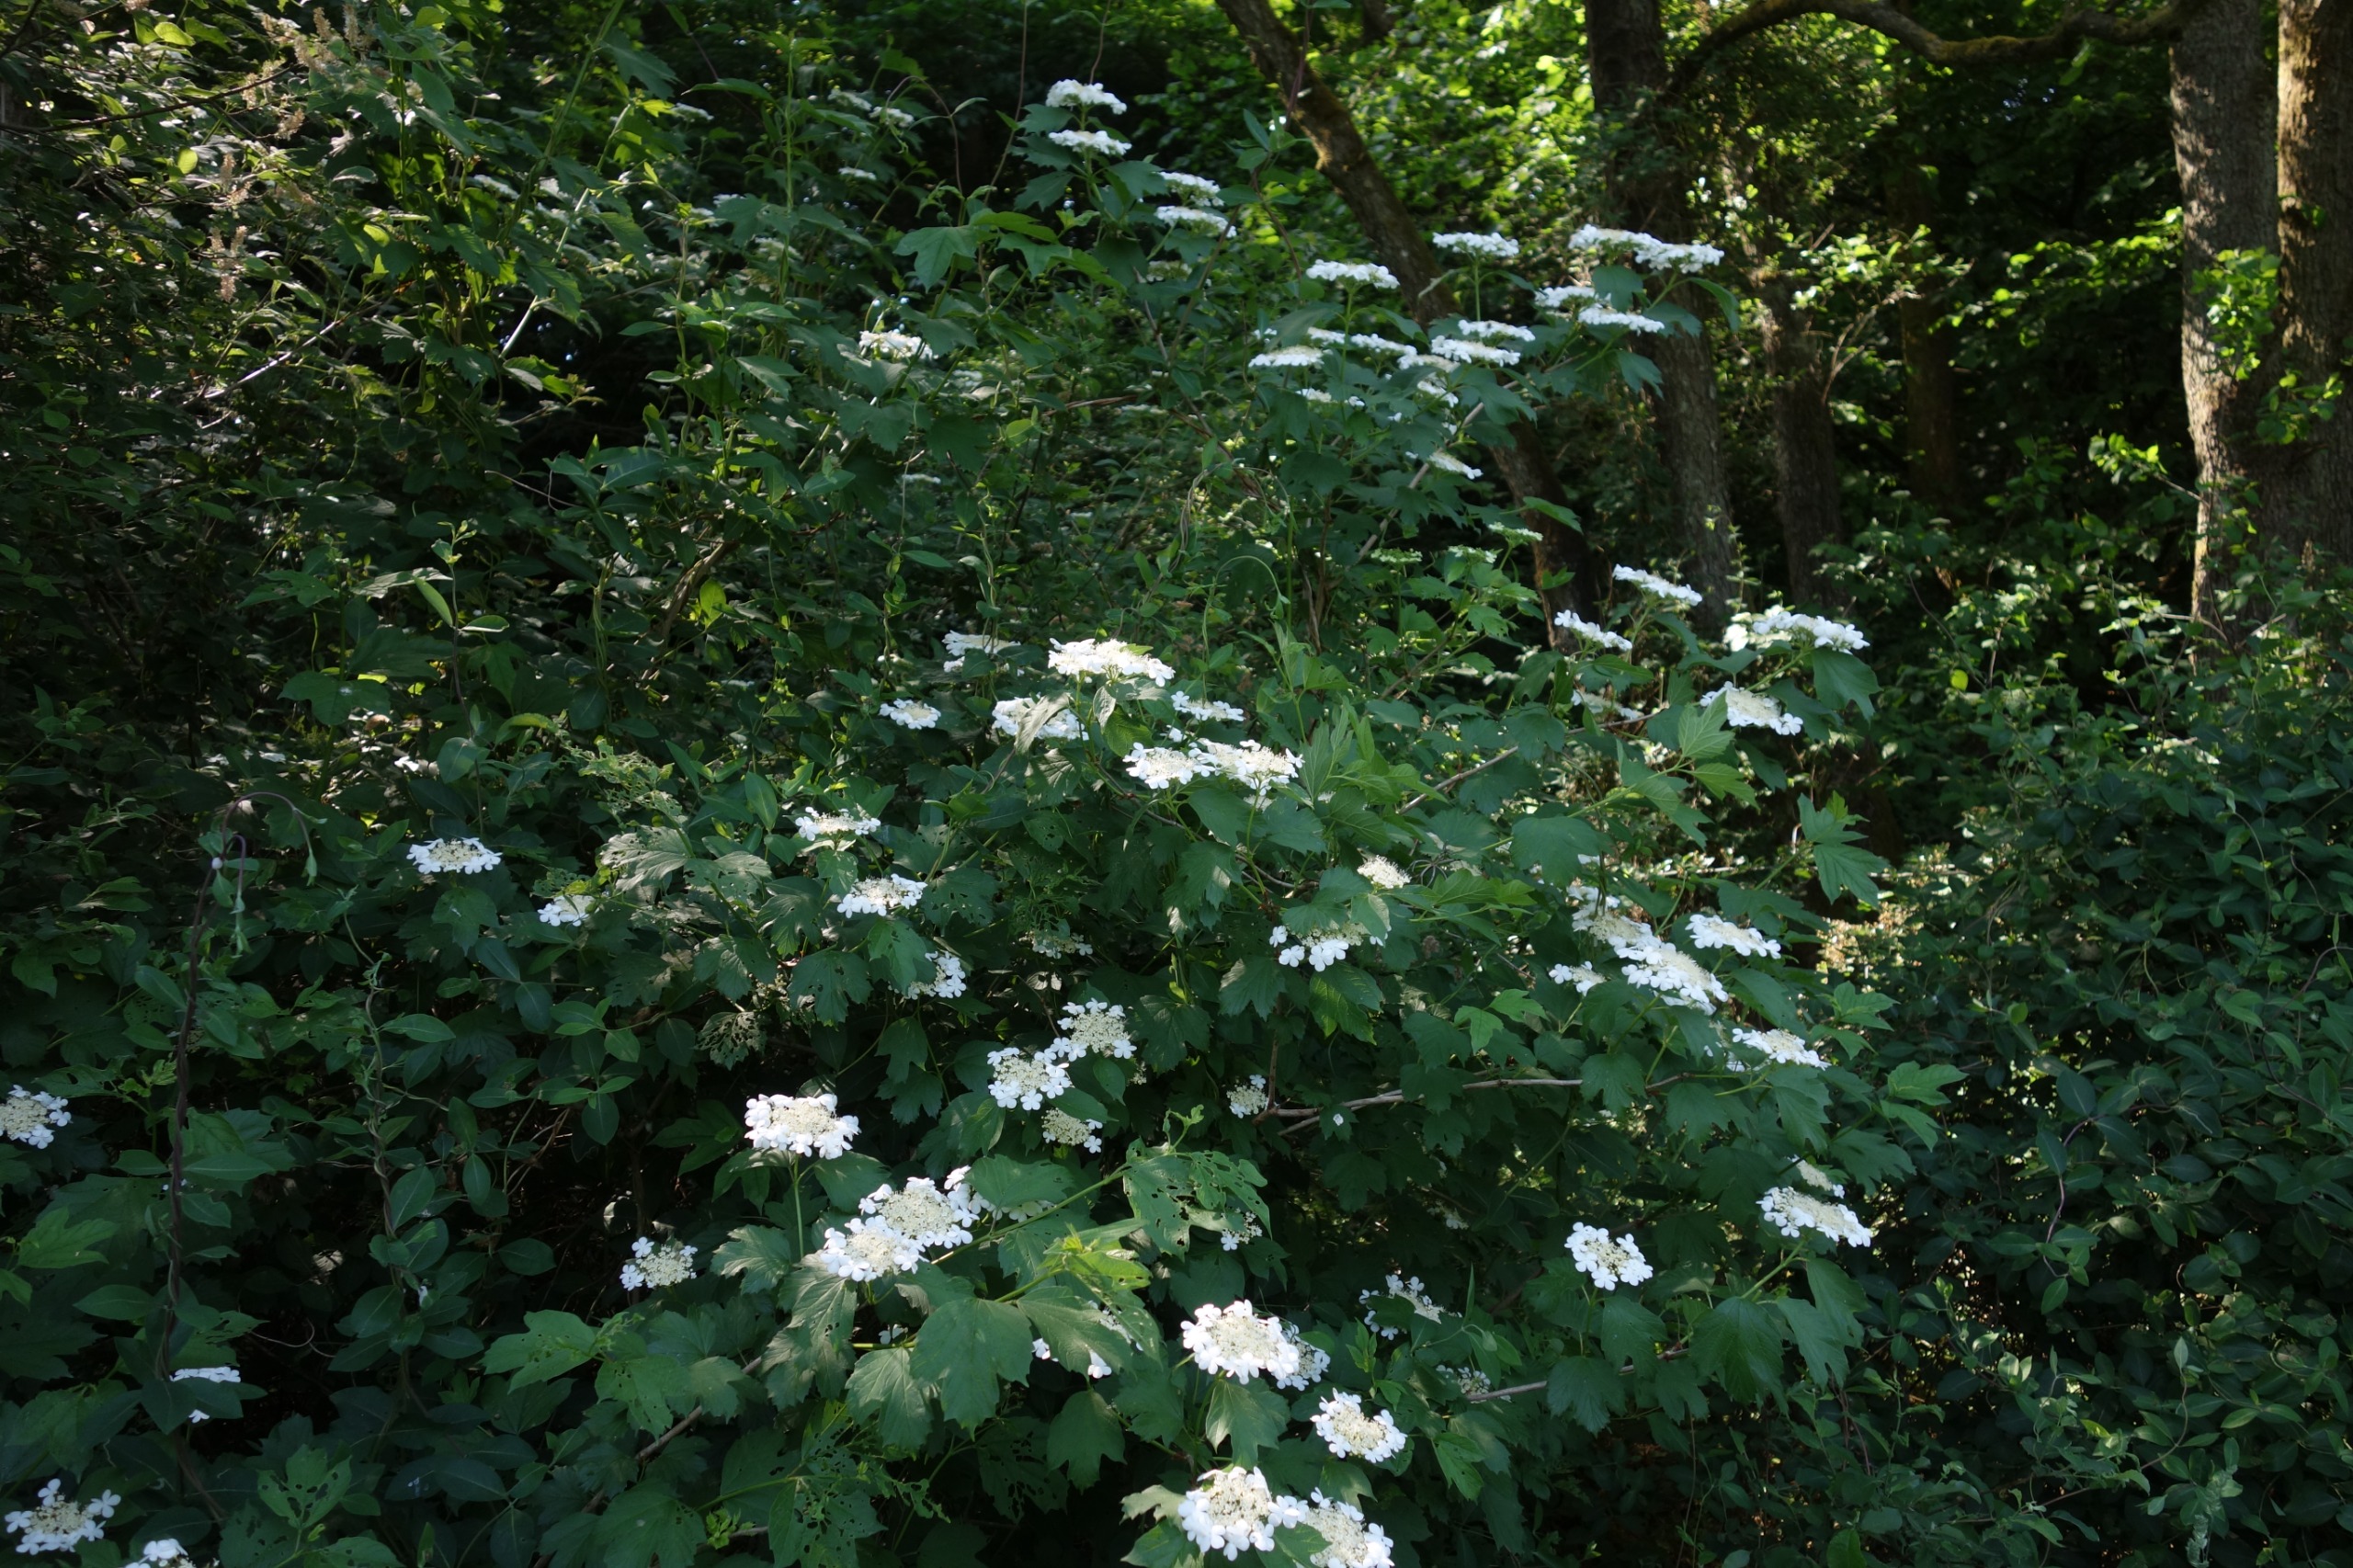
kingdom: Plantae
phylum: Tracheophyta
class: Magnoliopsida
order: Dipsacales
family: Viburnaceae
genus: Viburnum
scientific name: Viburnum opulus
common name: Kvalkved
